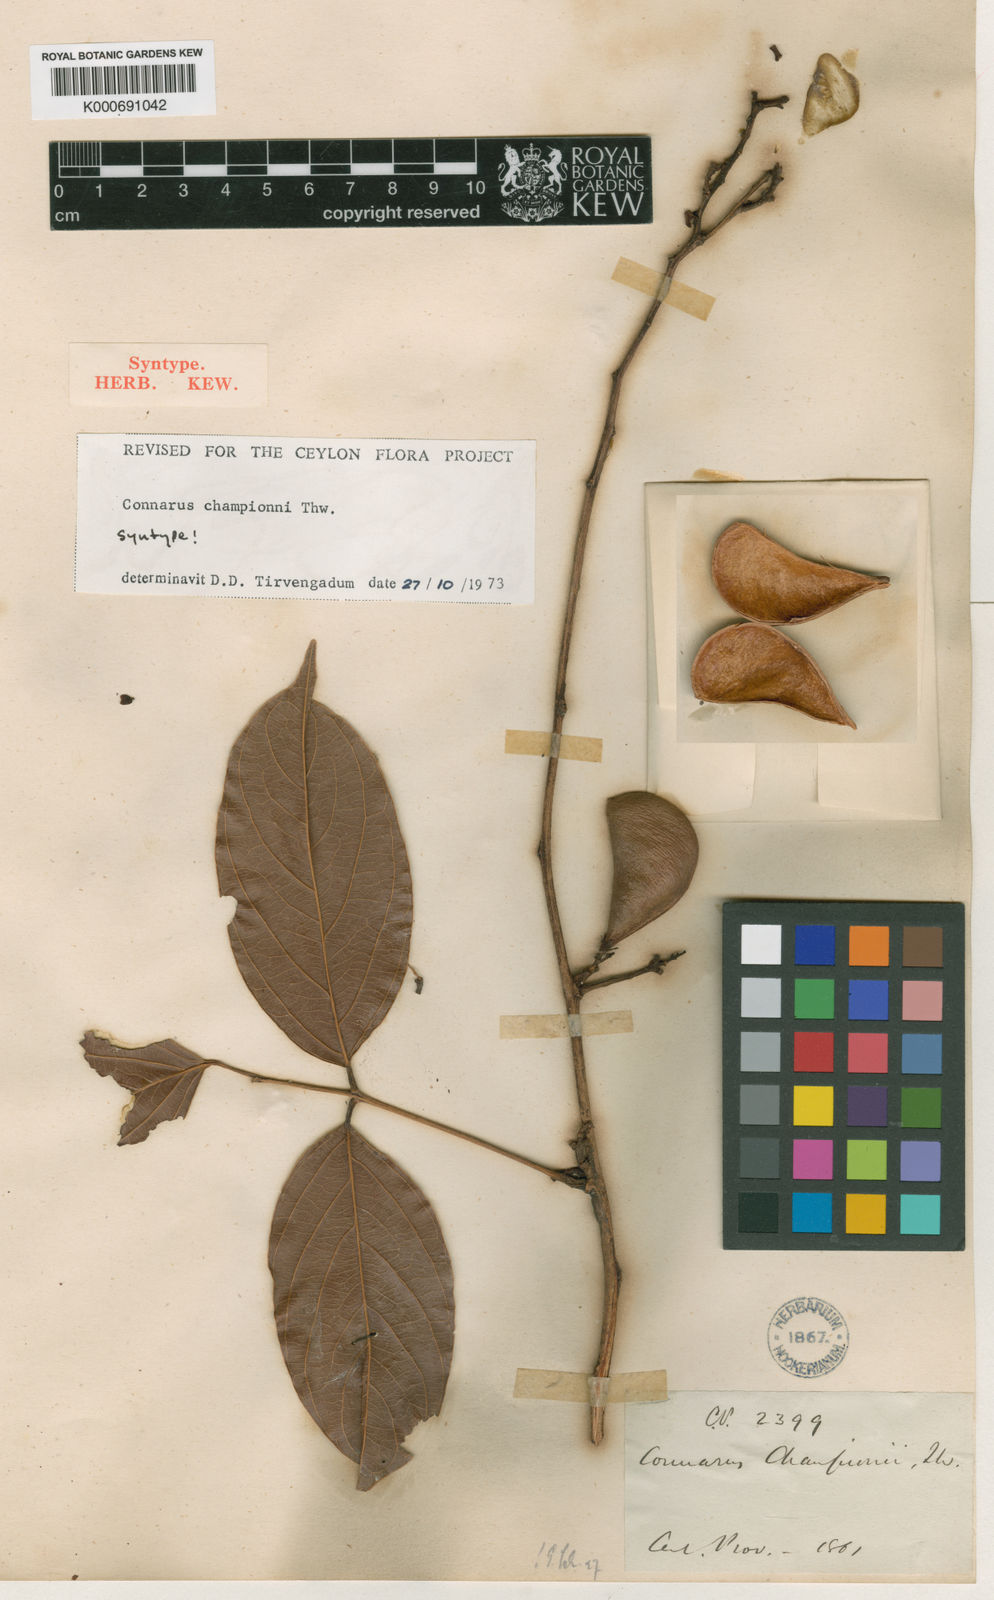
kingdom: Plantae
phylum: Tracheophyta
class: Magnoliopsida
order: Oxalidales
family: Connaraceae
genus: Connarus
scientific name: Connarus championii
